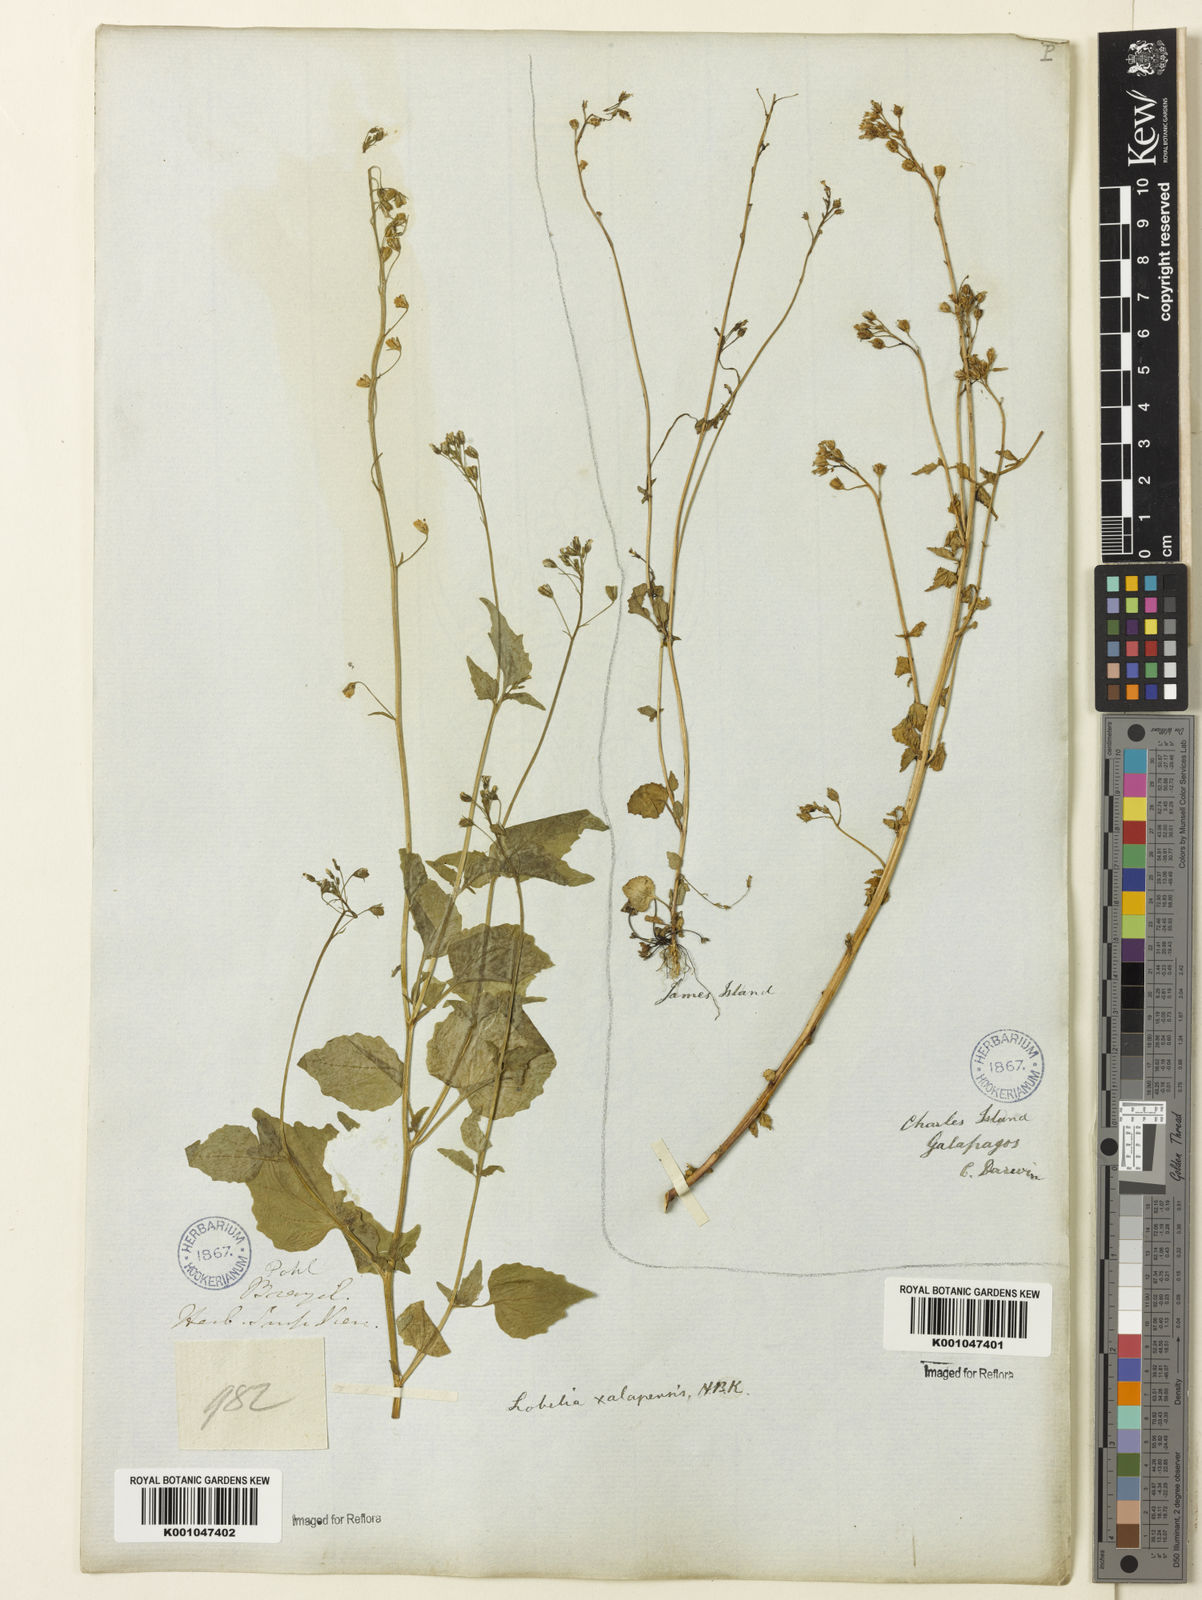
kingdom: Plantae
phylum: Tracheophyta
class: Magnoliopsida
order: Asterales
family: Campanulaceae
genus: Lobelia
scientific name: Lobelia xalapensis
